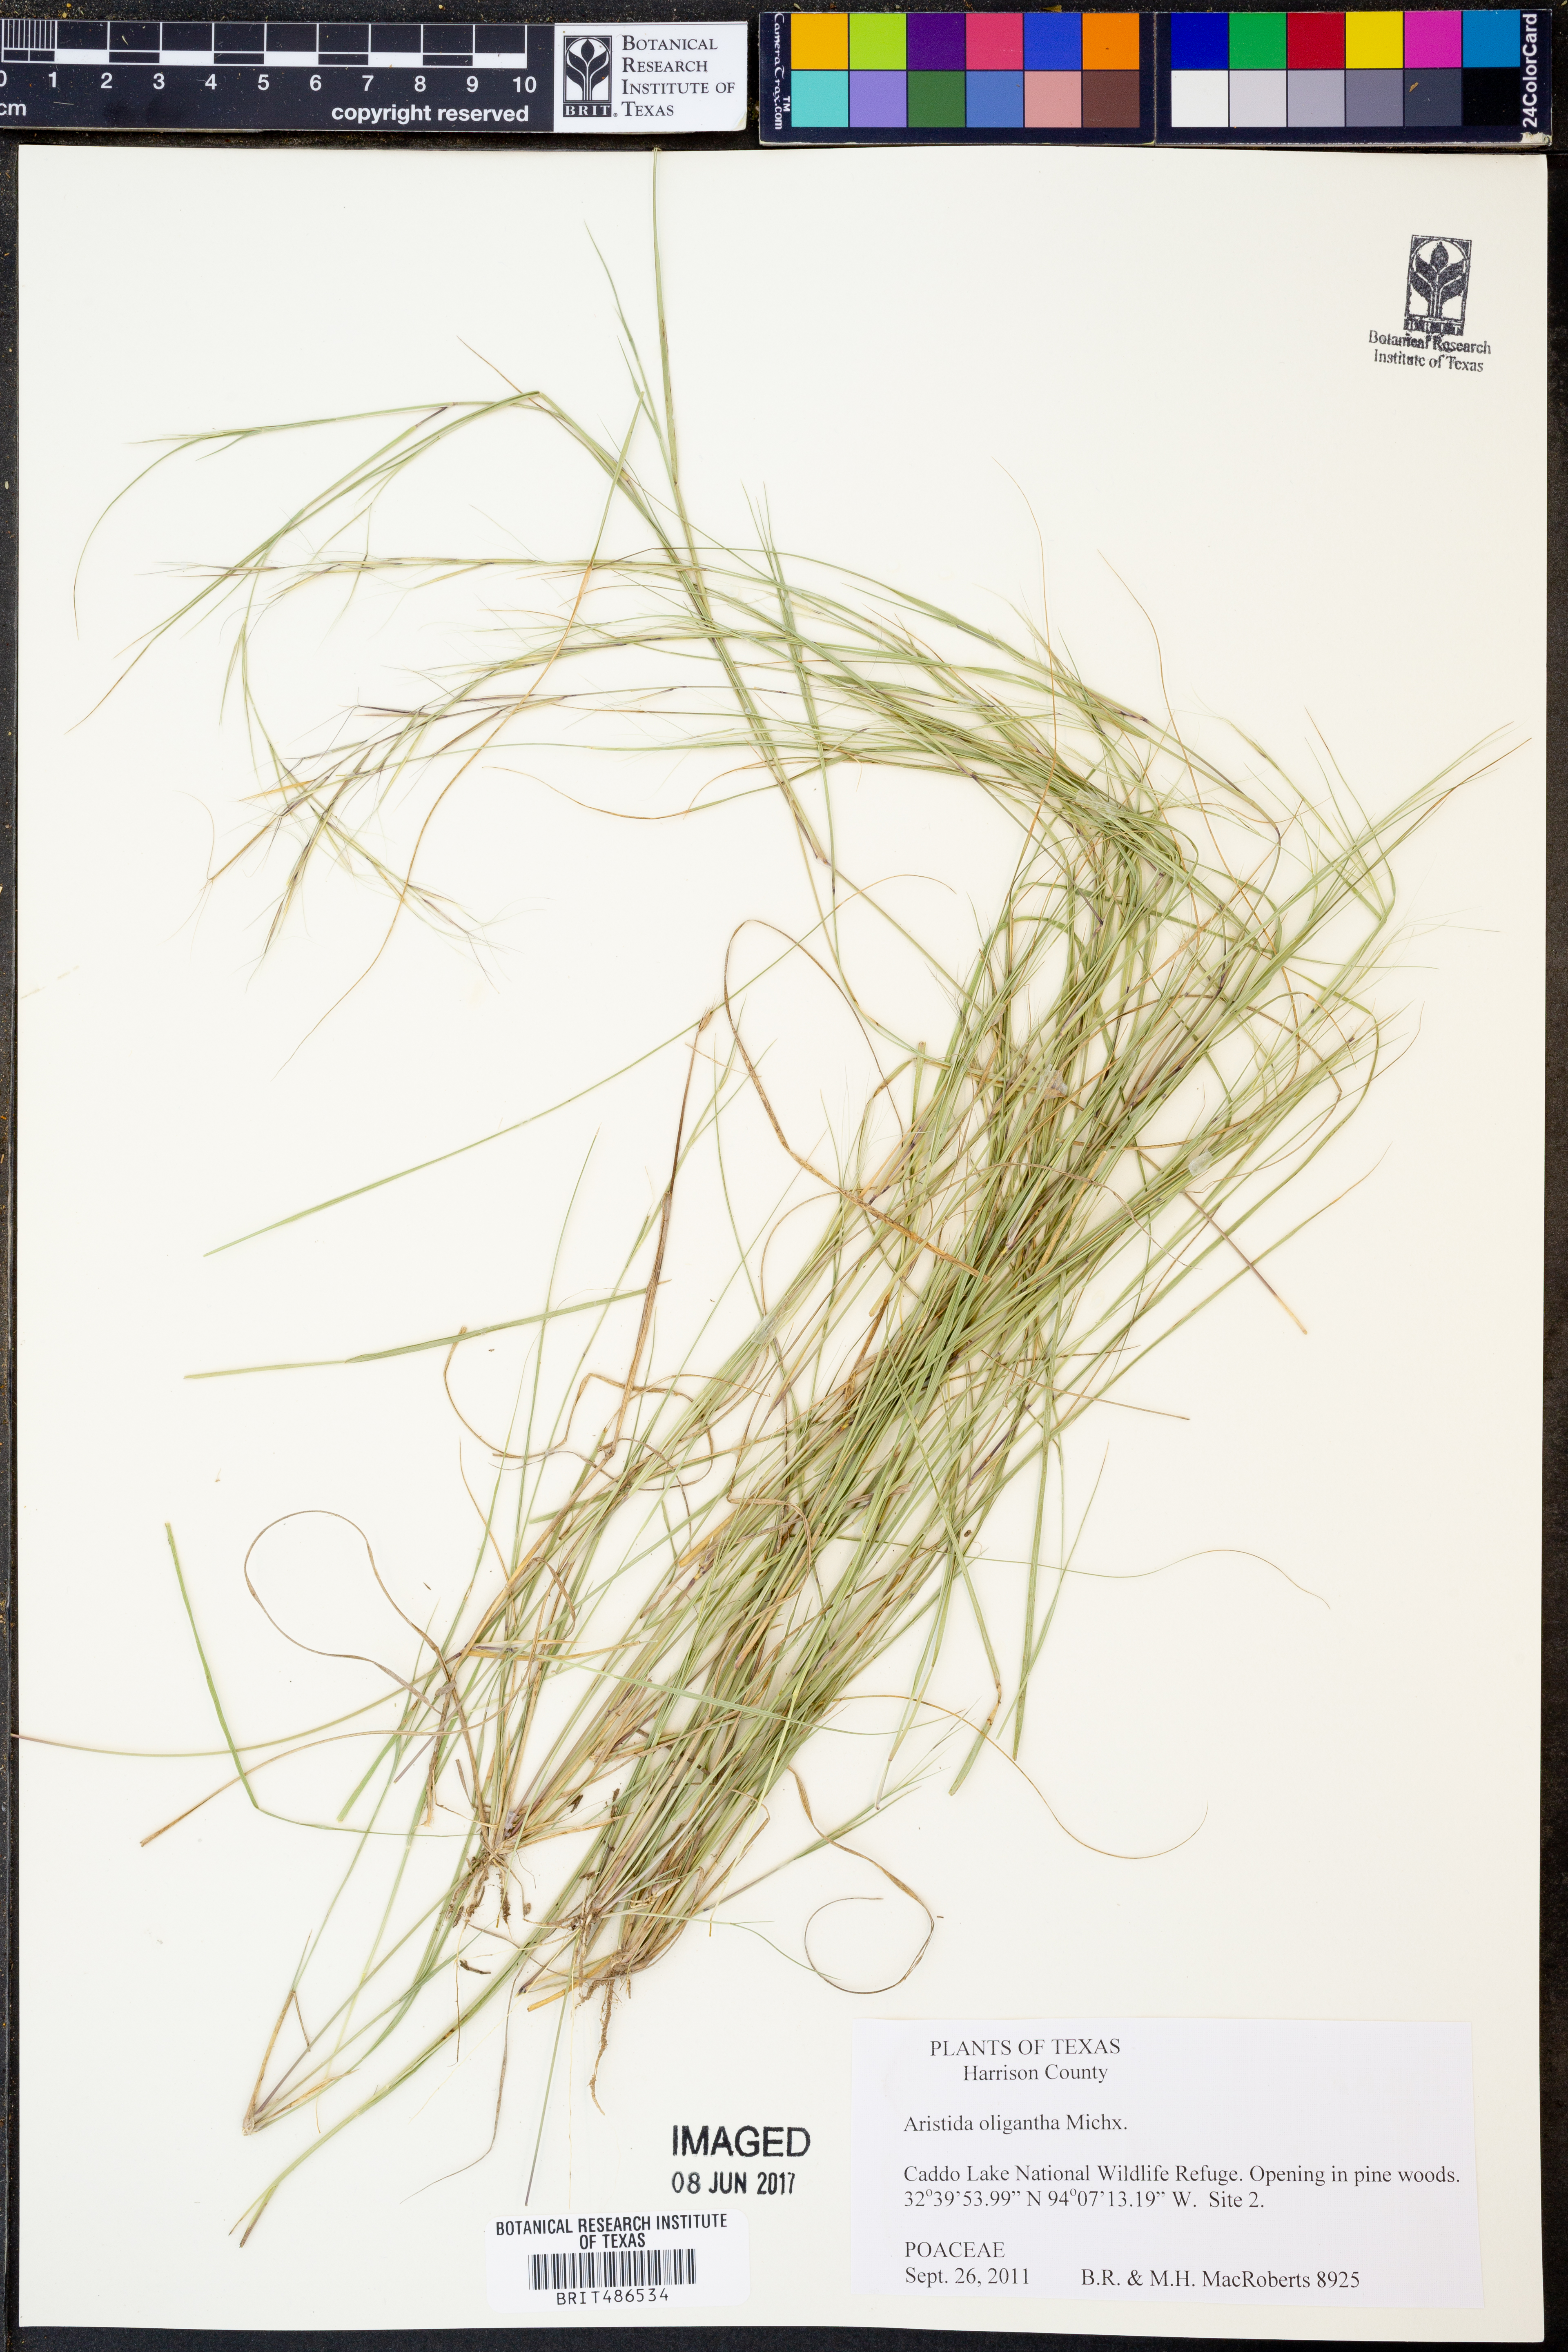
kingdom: Plantae
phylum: Tracheophyta
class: Liliopsida
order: Poales
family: Poaceae
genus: Aristida
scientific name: Aristida oligantha
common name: Few-flowered aristida
